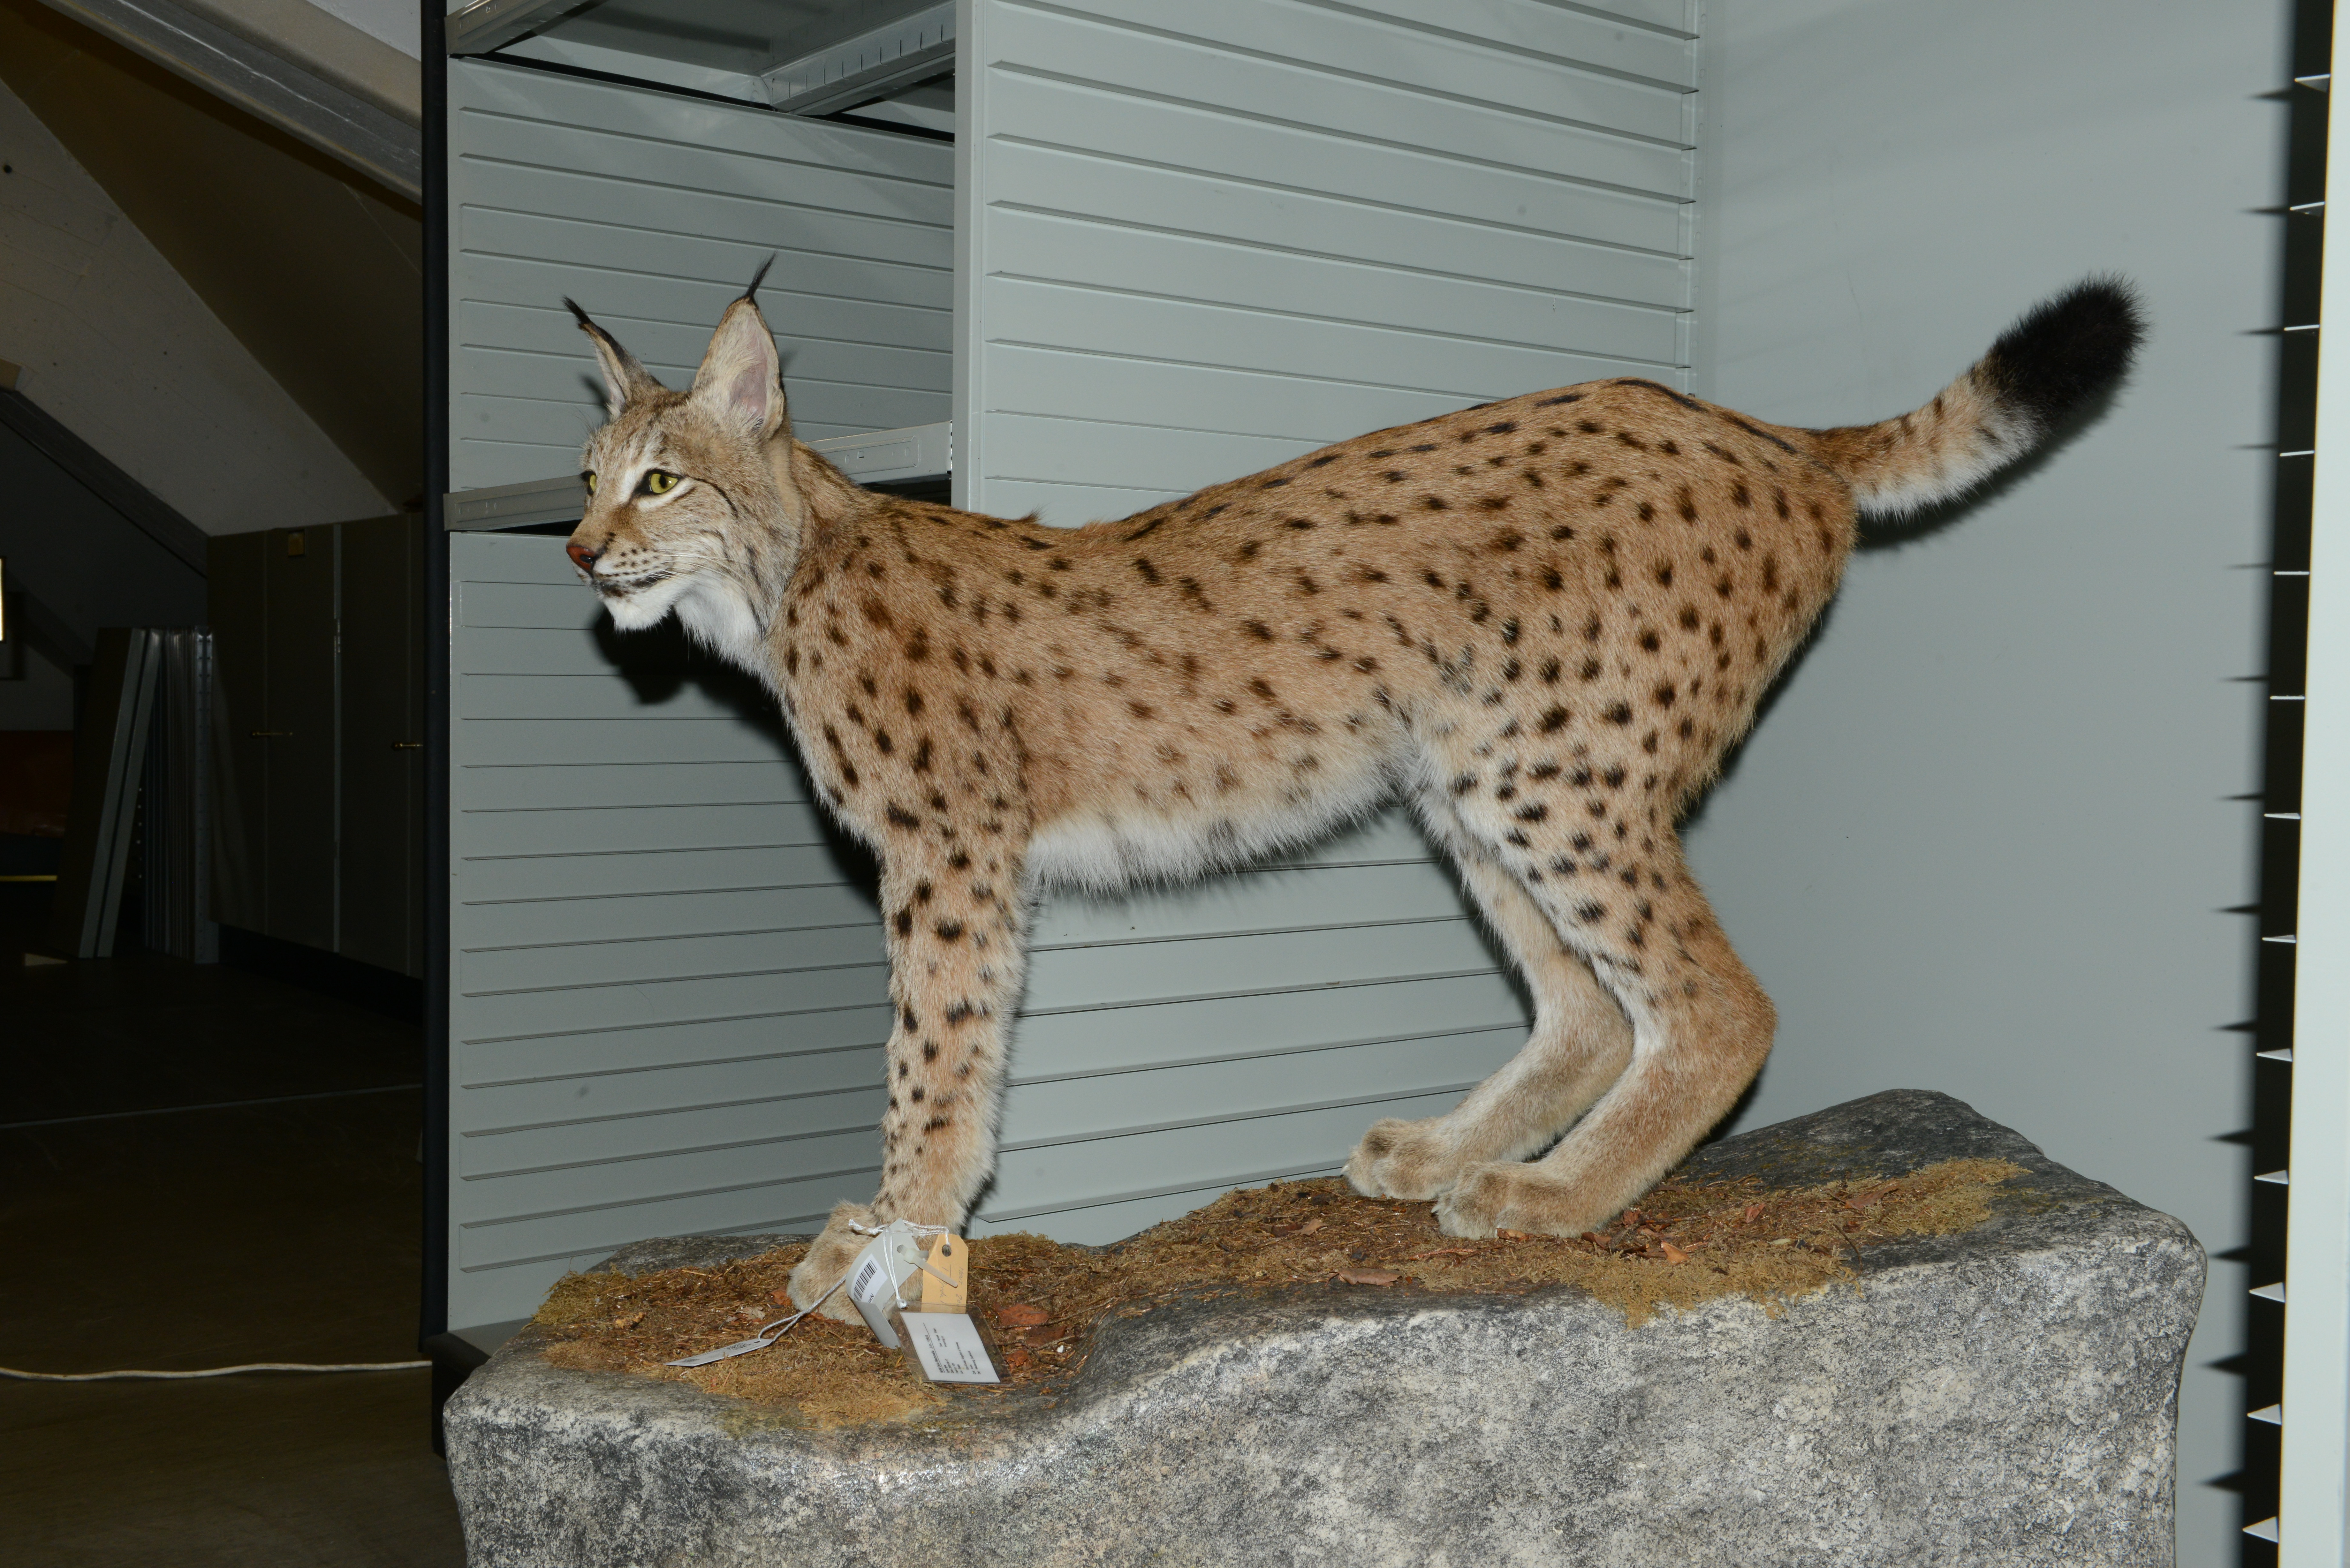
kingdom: Animalia
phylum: Chordata
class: Mammalia
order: Carnivora
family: Felidae
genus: Lynx
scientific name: Lynx lynx
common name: Eurasian lynx
